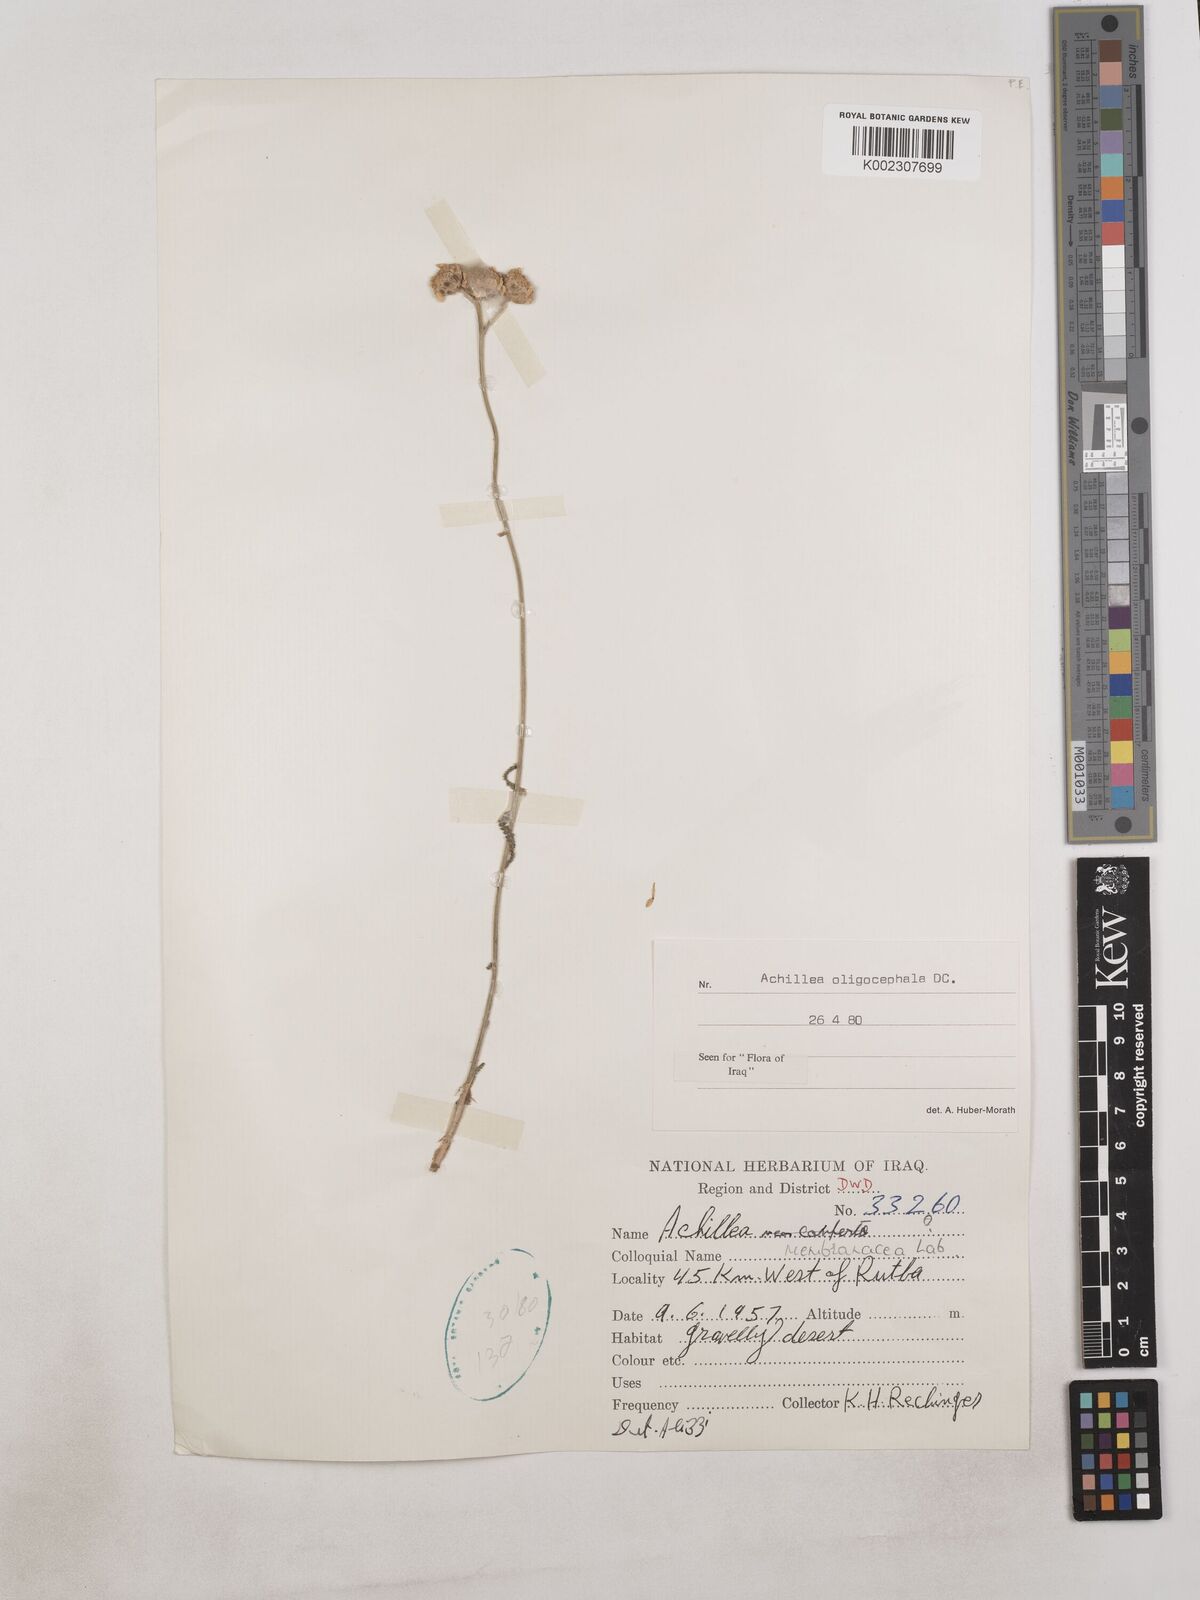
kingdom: Plantae
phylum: Tracheophyta
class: Magnoliopsida
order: Asterales
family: Asteraceae
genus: Achillea
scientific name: Achillea oligocephala
